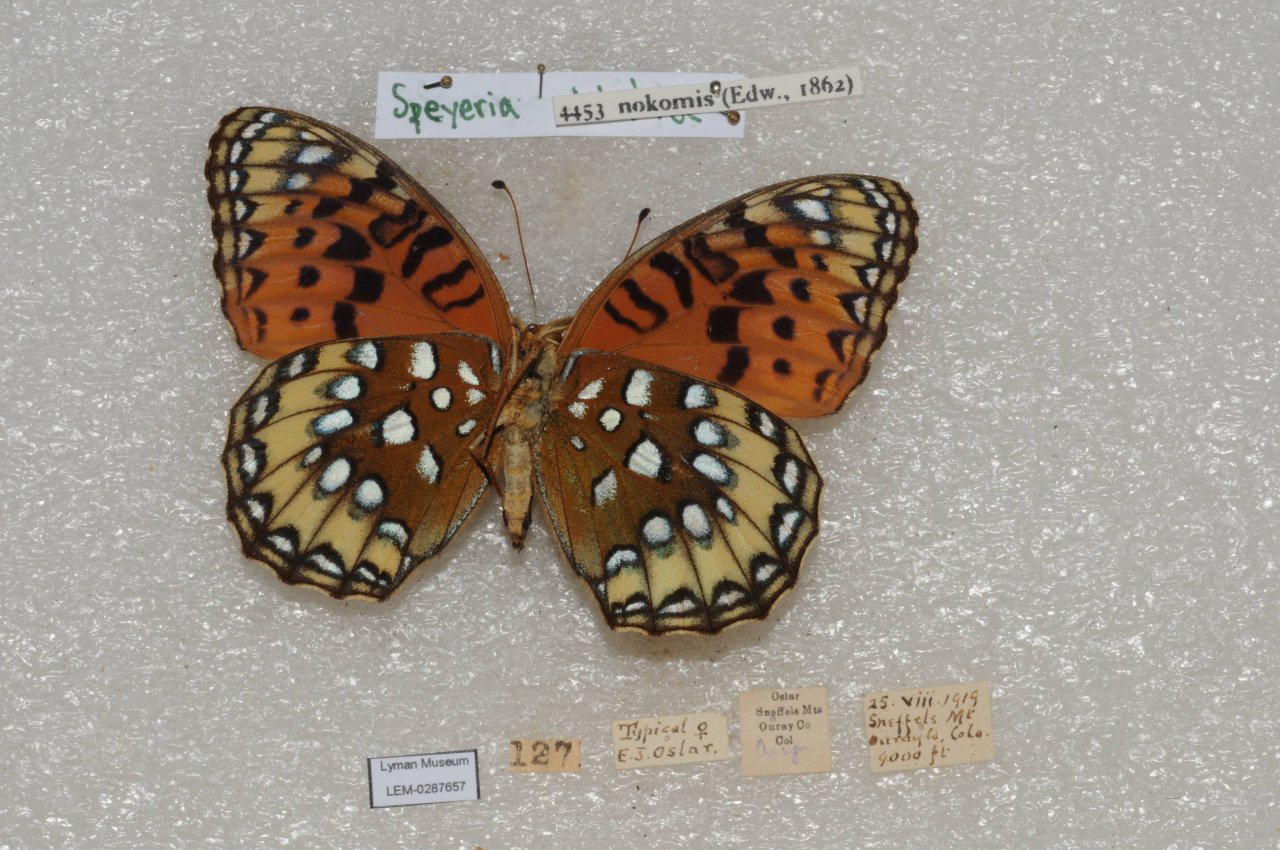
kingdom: Animalia
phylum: Arthropoda
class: Insecta
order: Lepidoptera
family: Nymphalidae
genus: Speyeria
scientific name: Speyeria nokomis
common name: Nokomis Fritillary
